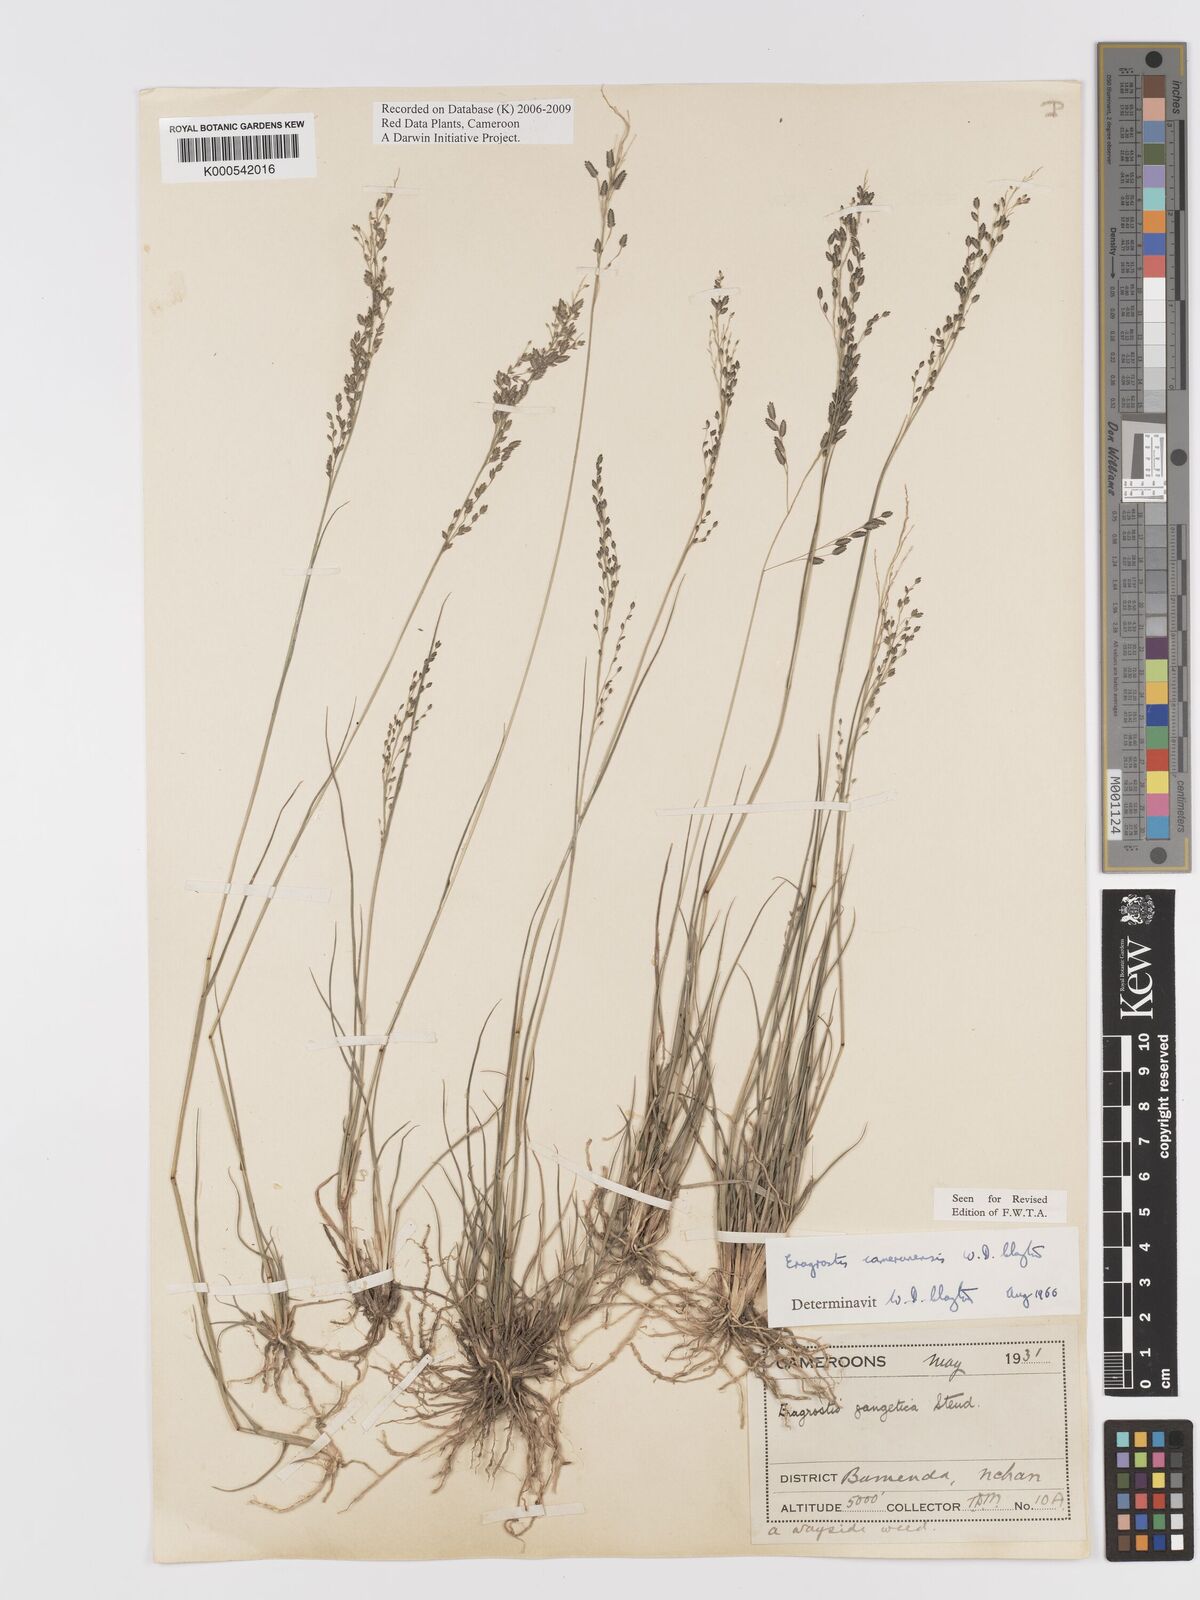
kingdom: Plantae
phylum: Tracheophyta
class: Liliopsida
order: Poales
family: Poaceae
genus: Eragrostis
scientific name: Eragrostis camerunensis
